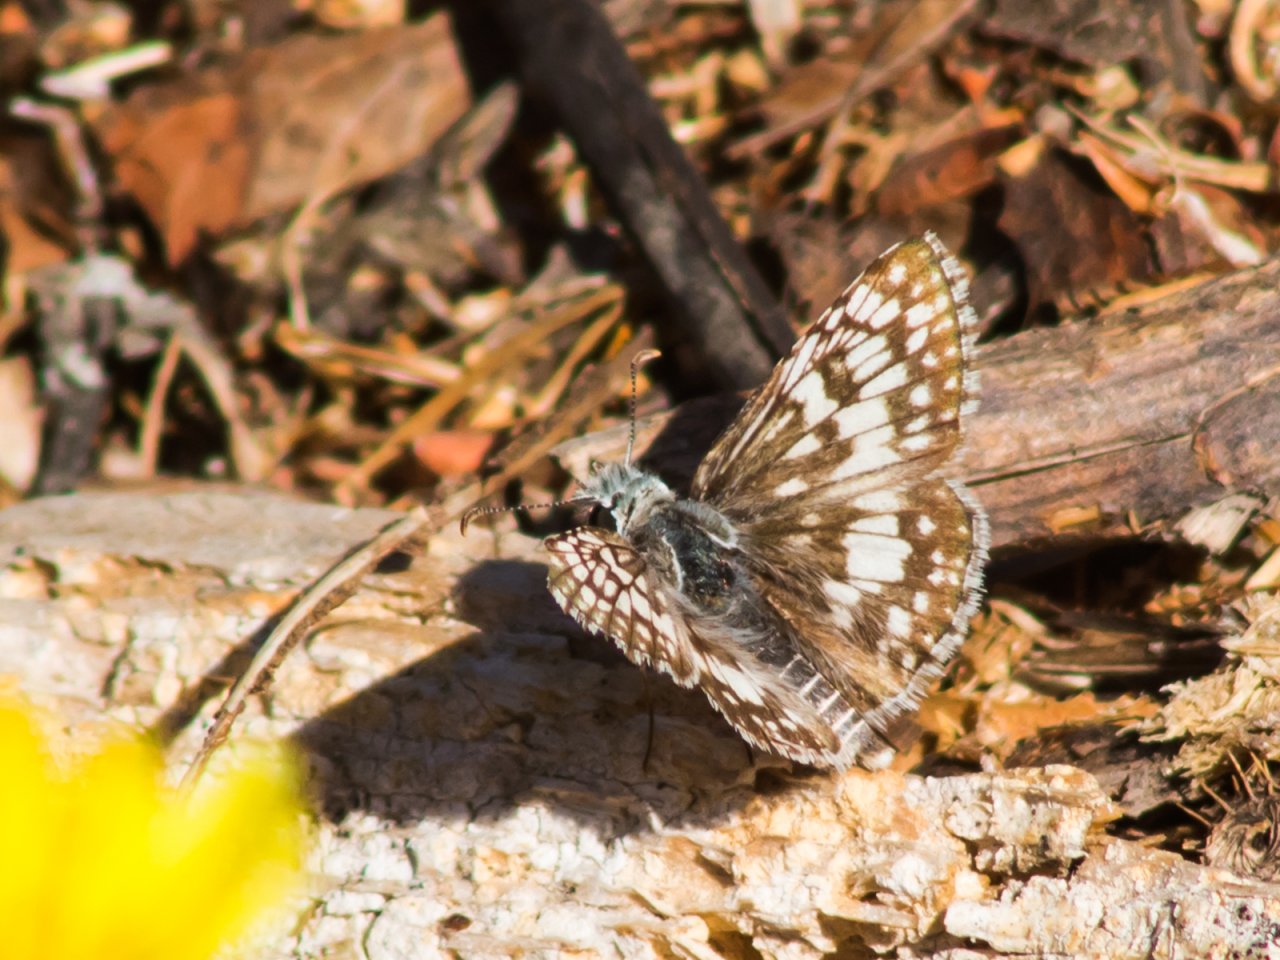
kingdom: Animalia
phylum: Arthropoda
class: Insecta
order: Lepidoptera
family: Hesperiidae
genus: Pyrgus
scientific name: Pyrgus communis
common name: White Checkered-Skipper
